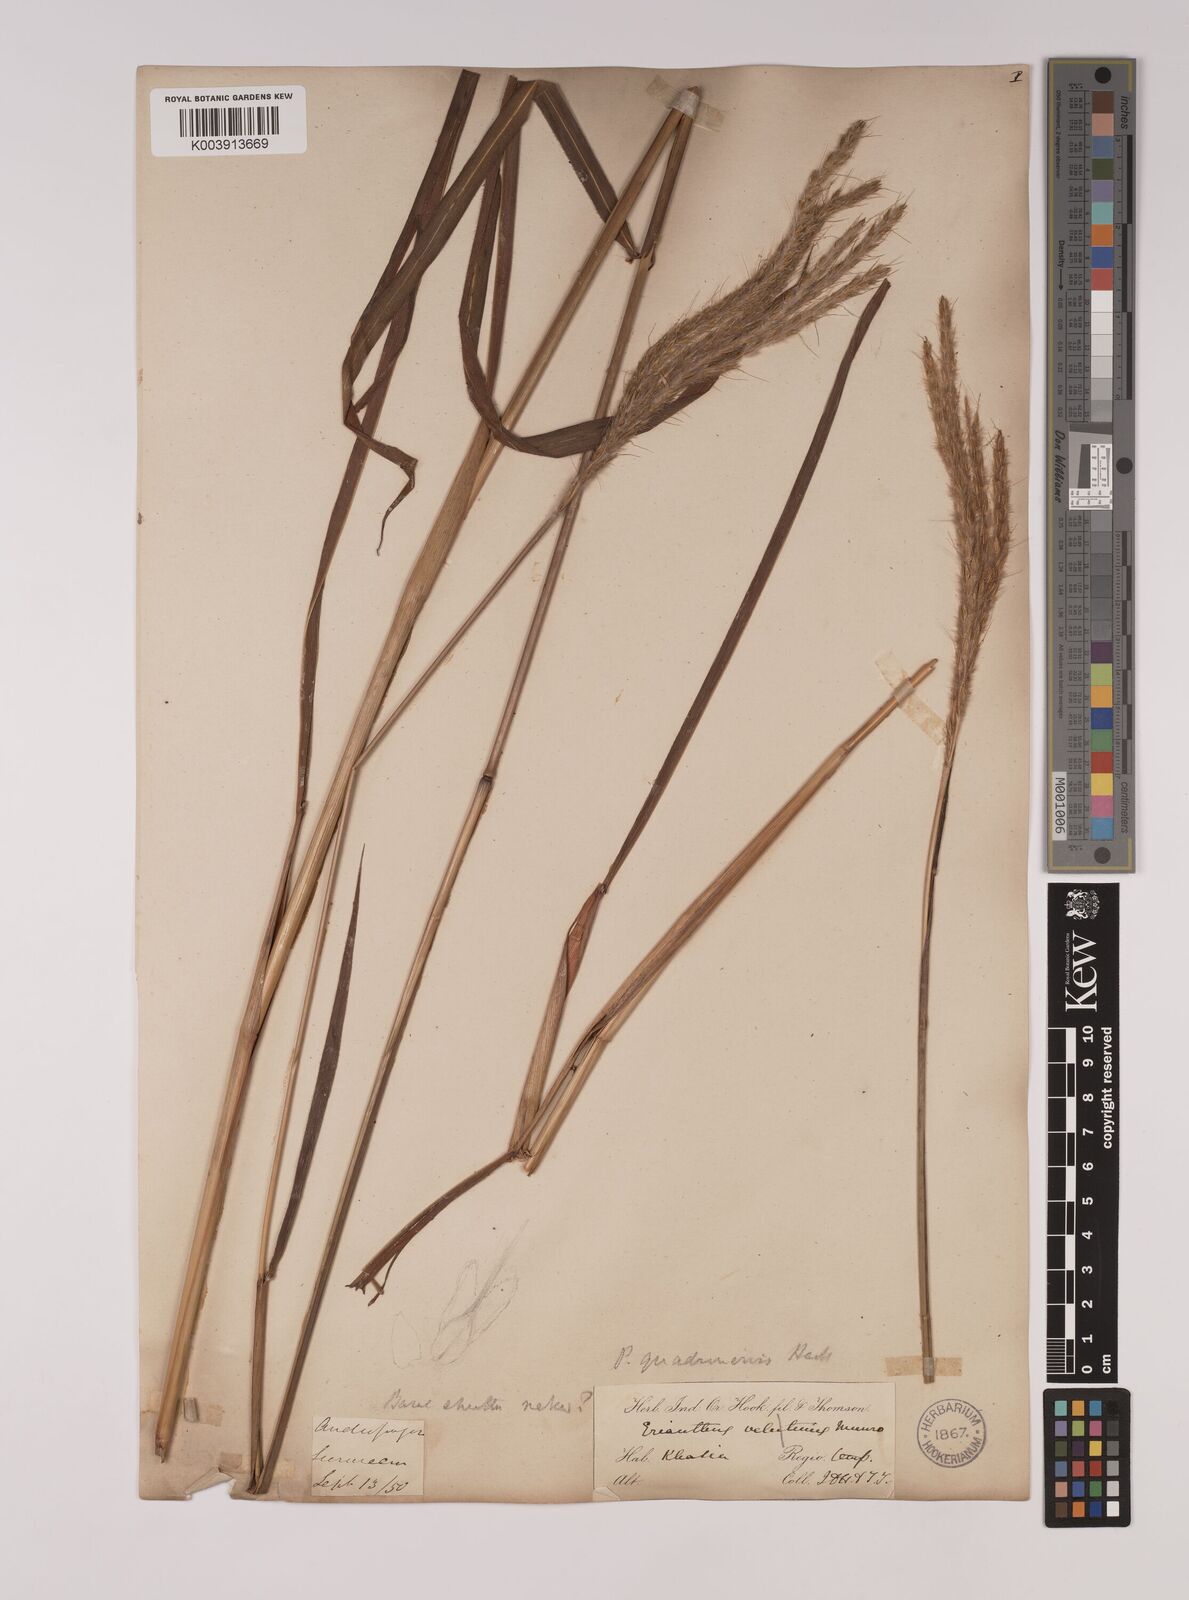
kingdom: Plantae
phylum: Tracheophyta
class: Liliopsida
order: Poales
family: Poaceae
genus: Pseudopogonatherum
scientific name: Pseudopogonatherum quadrinerve
